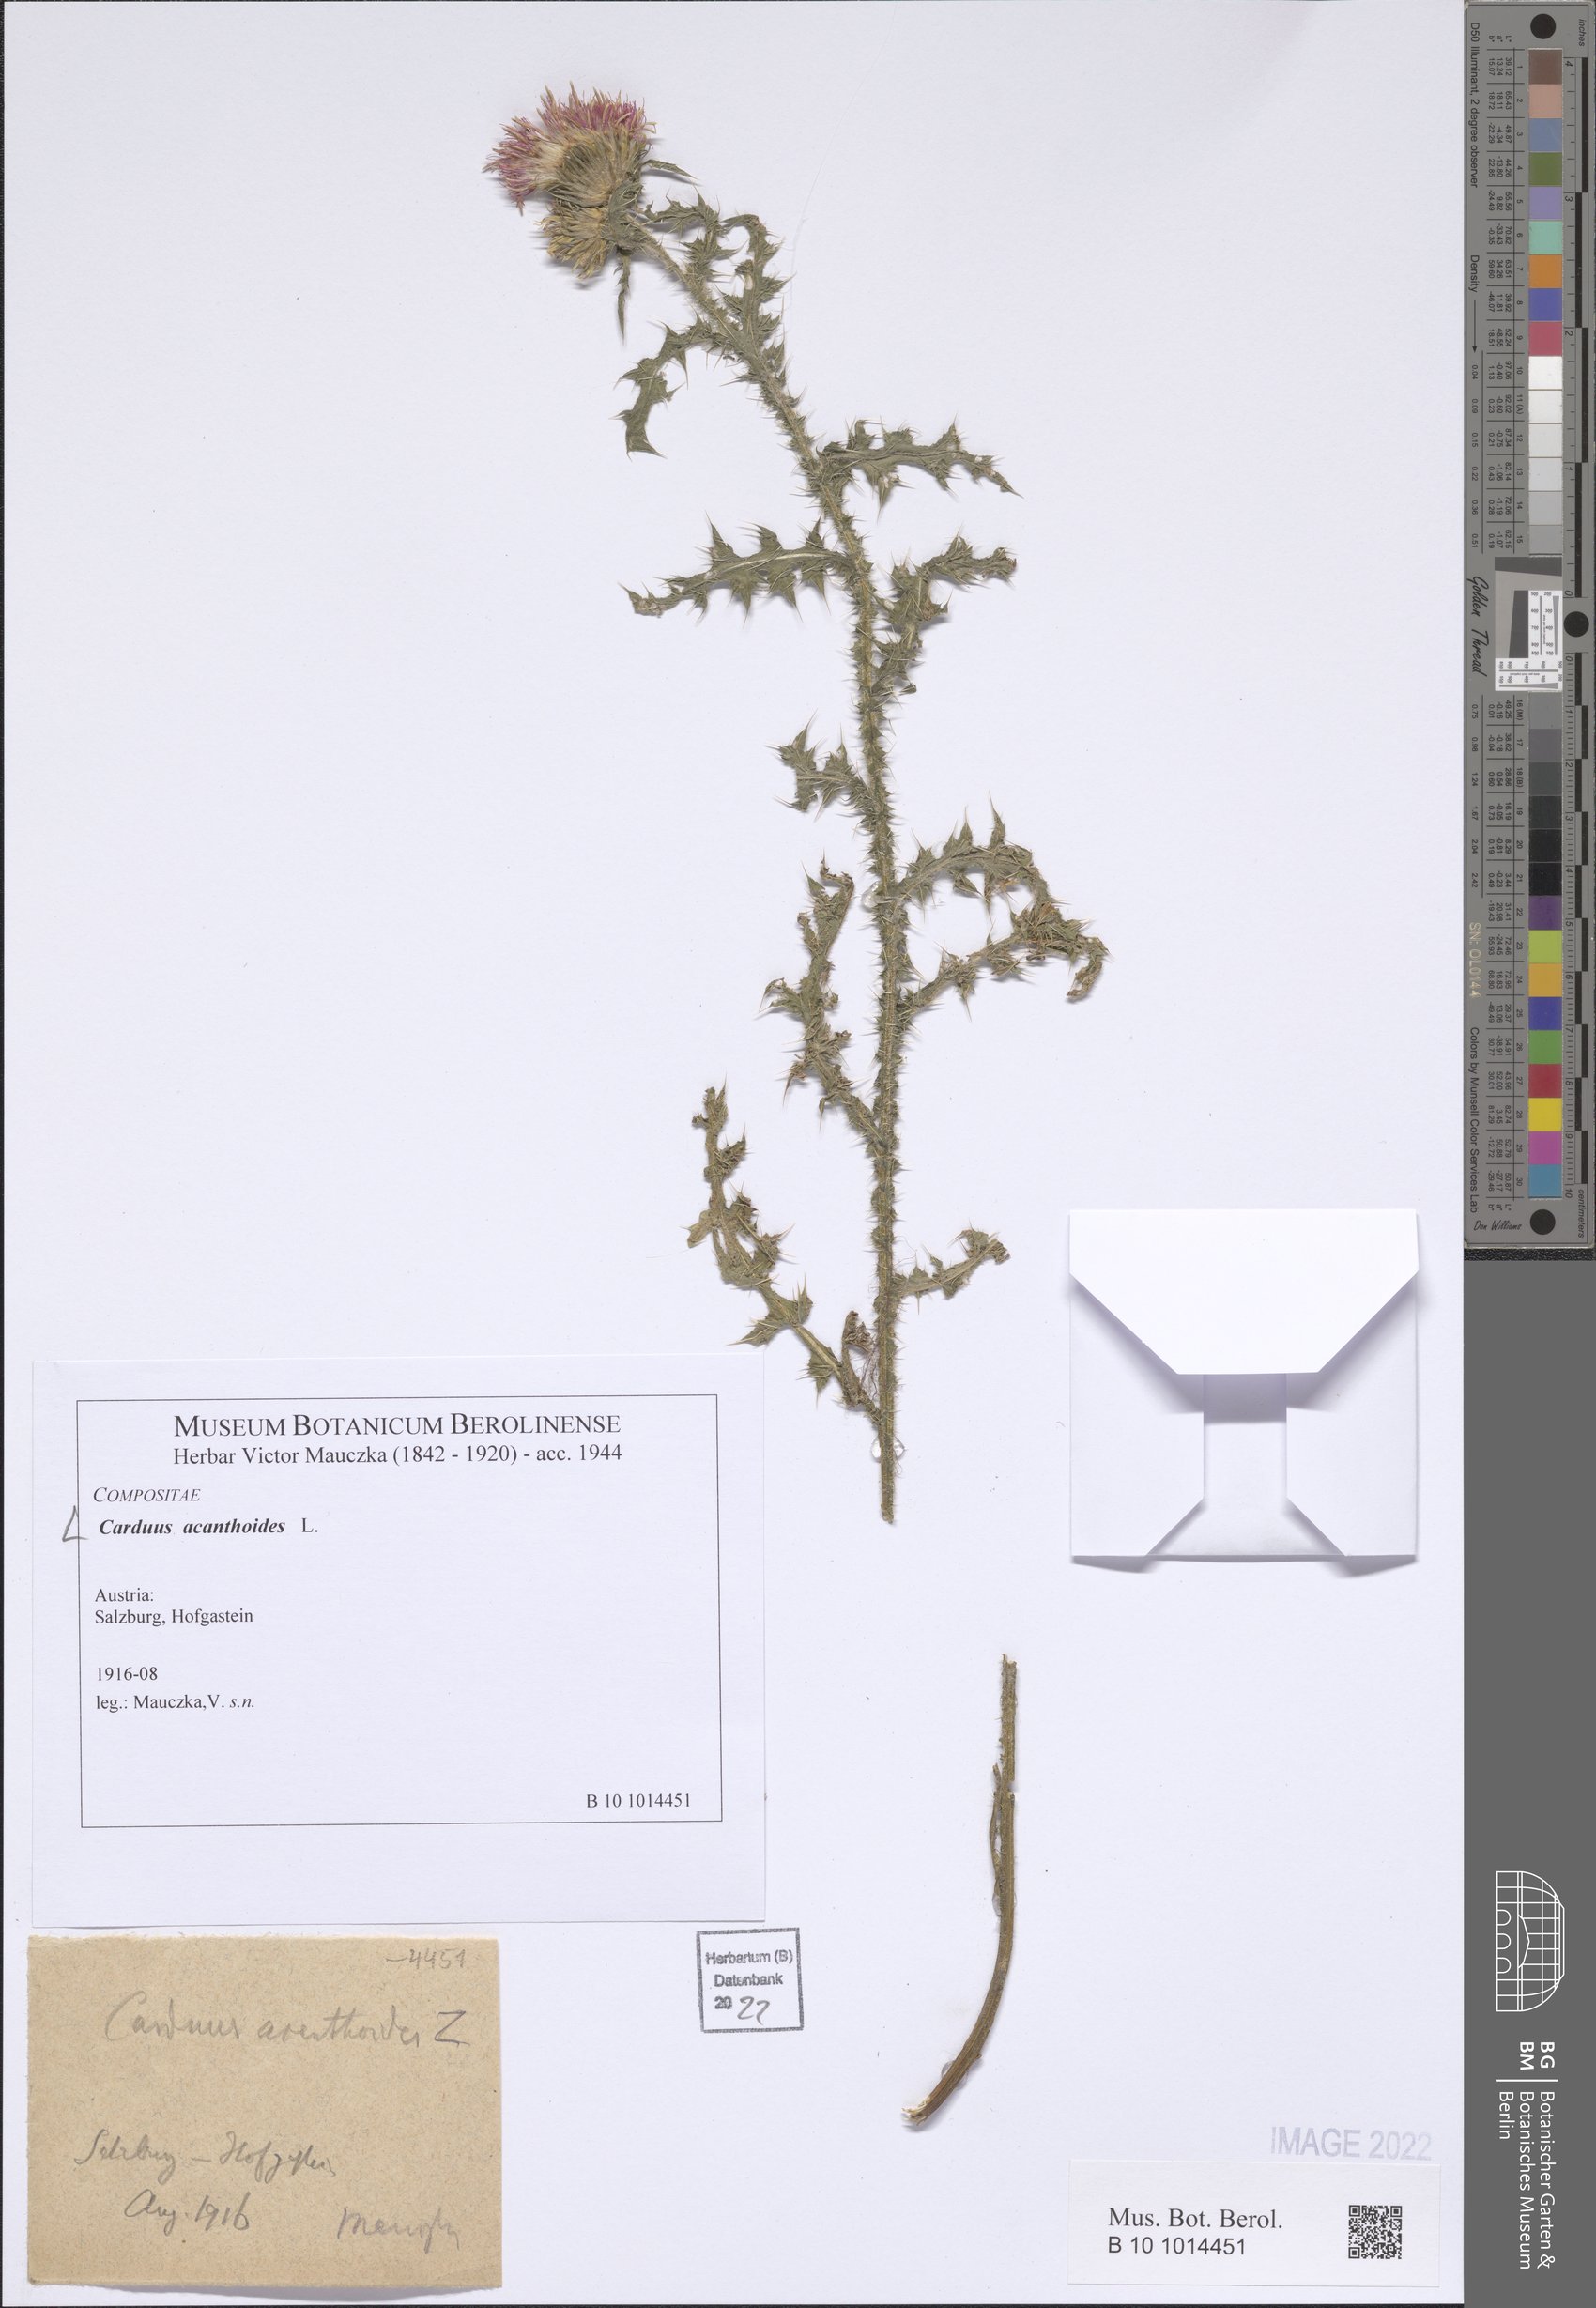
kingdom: Plantae
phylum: Tracheophyta
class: Magnoliopsida
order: Asterales
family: Asteraceae
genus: Carduus
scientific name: Carduus acanthoides
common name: Plumeless thistle
